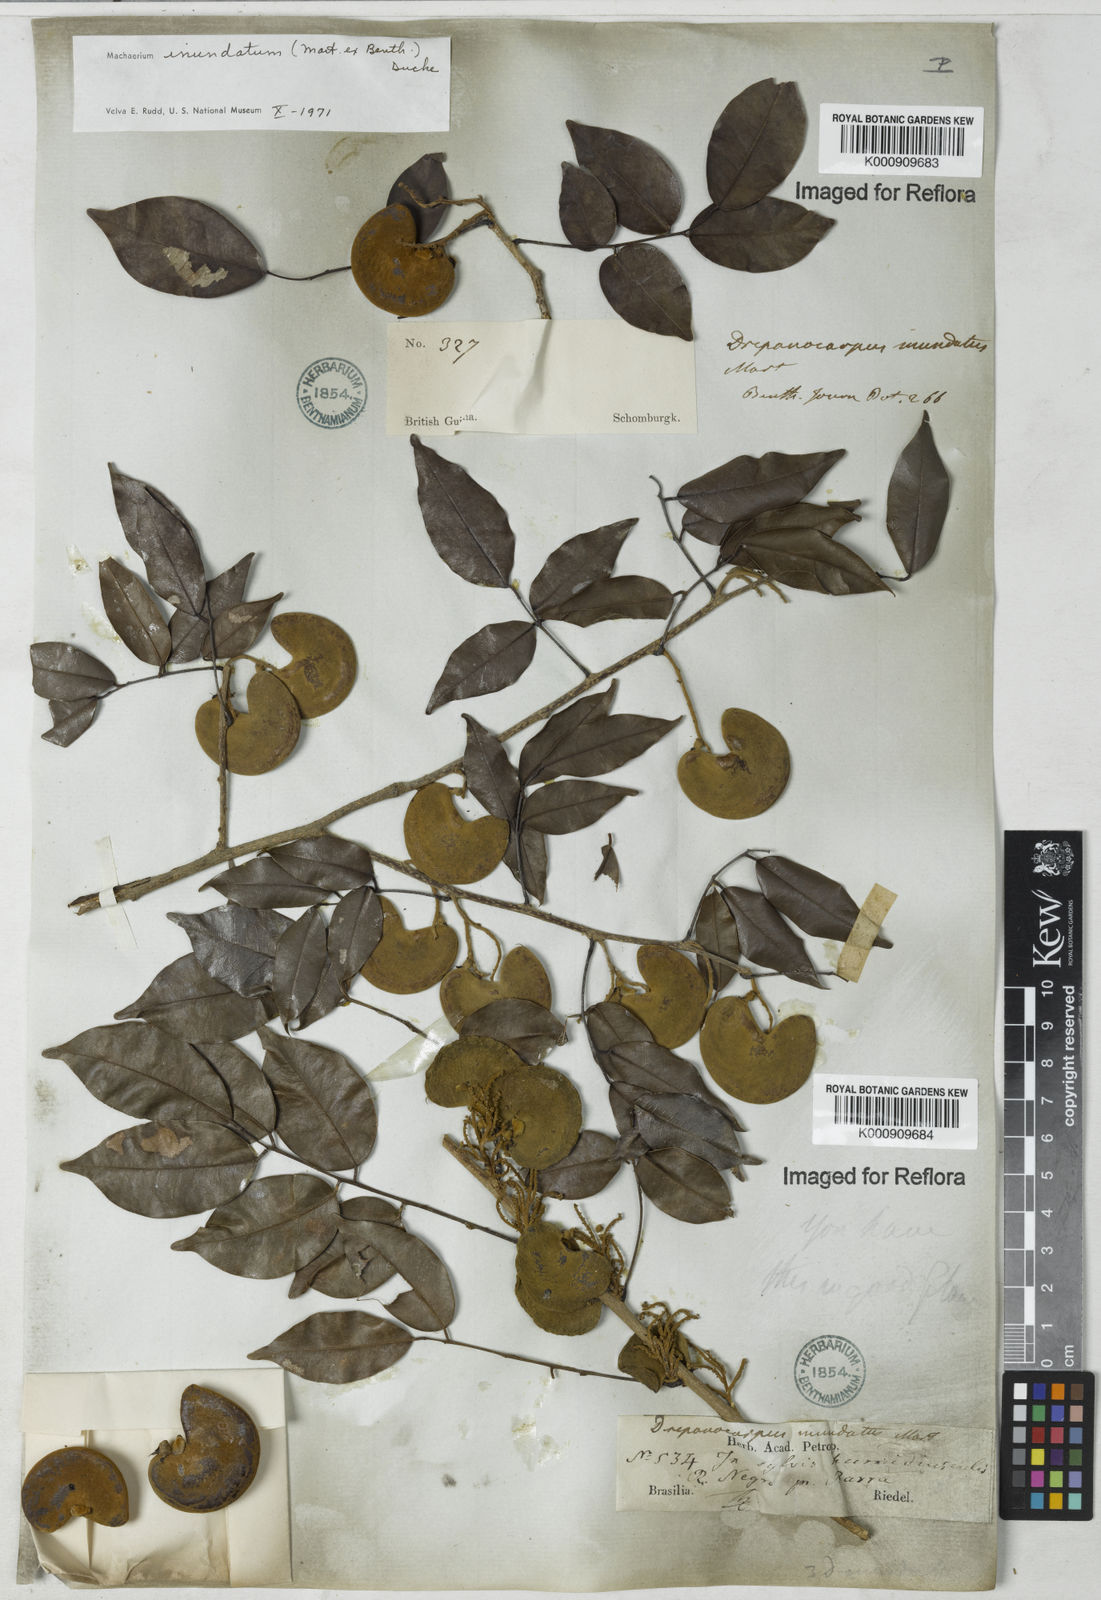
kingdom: Plantae
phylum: Tracheophyta
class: Magnoliopsida
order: Fabales
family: Fabaceae
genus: Machaerium
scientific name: Machaerium inundatum
